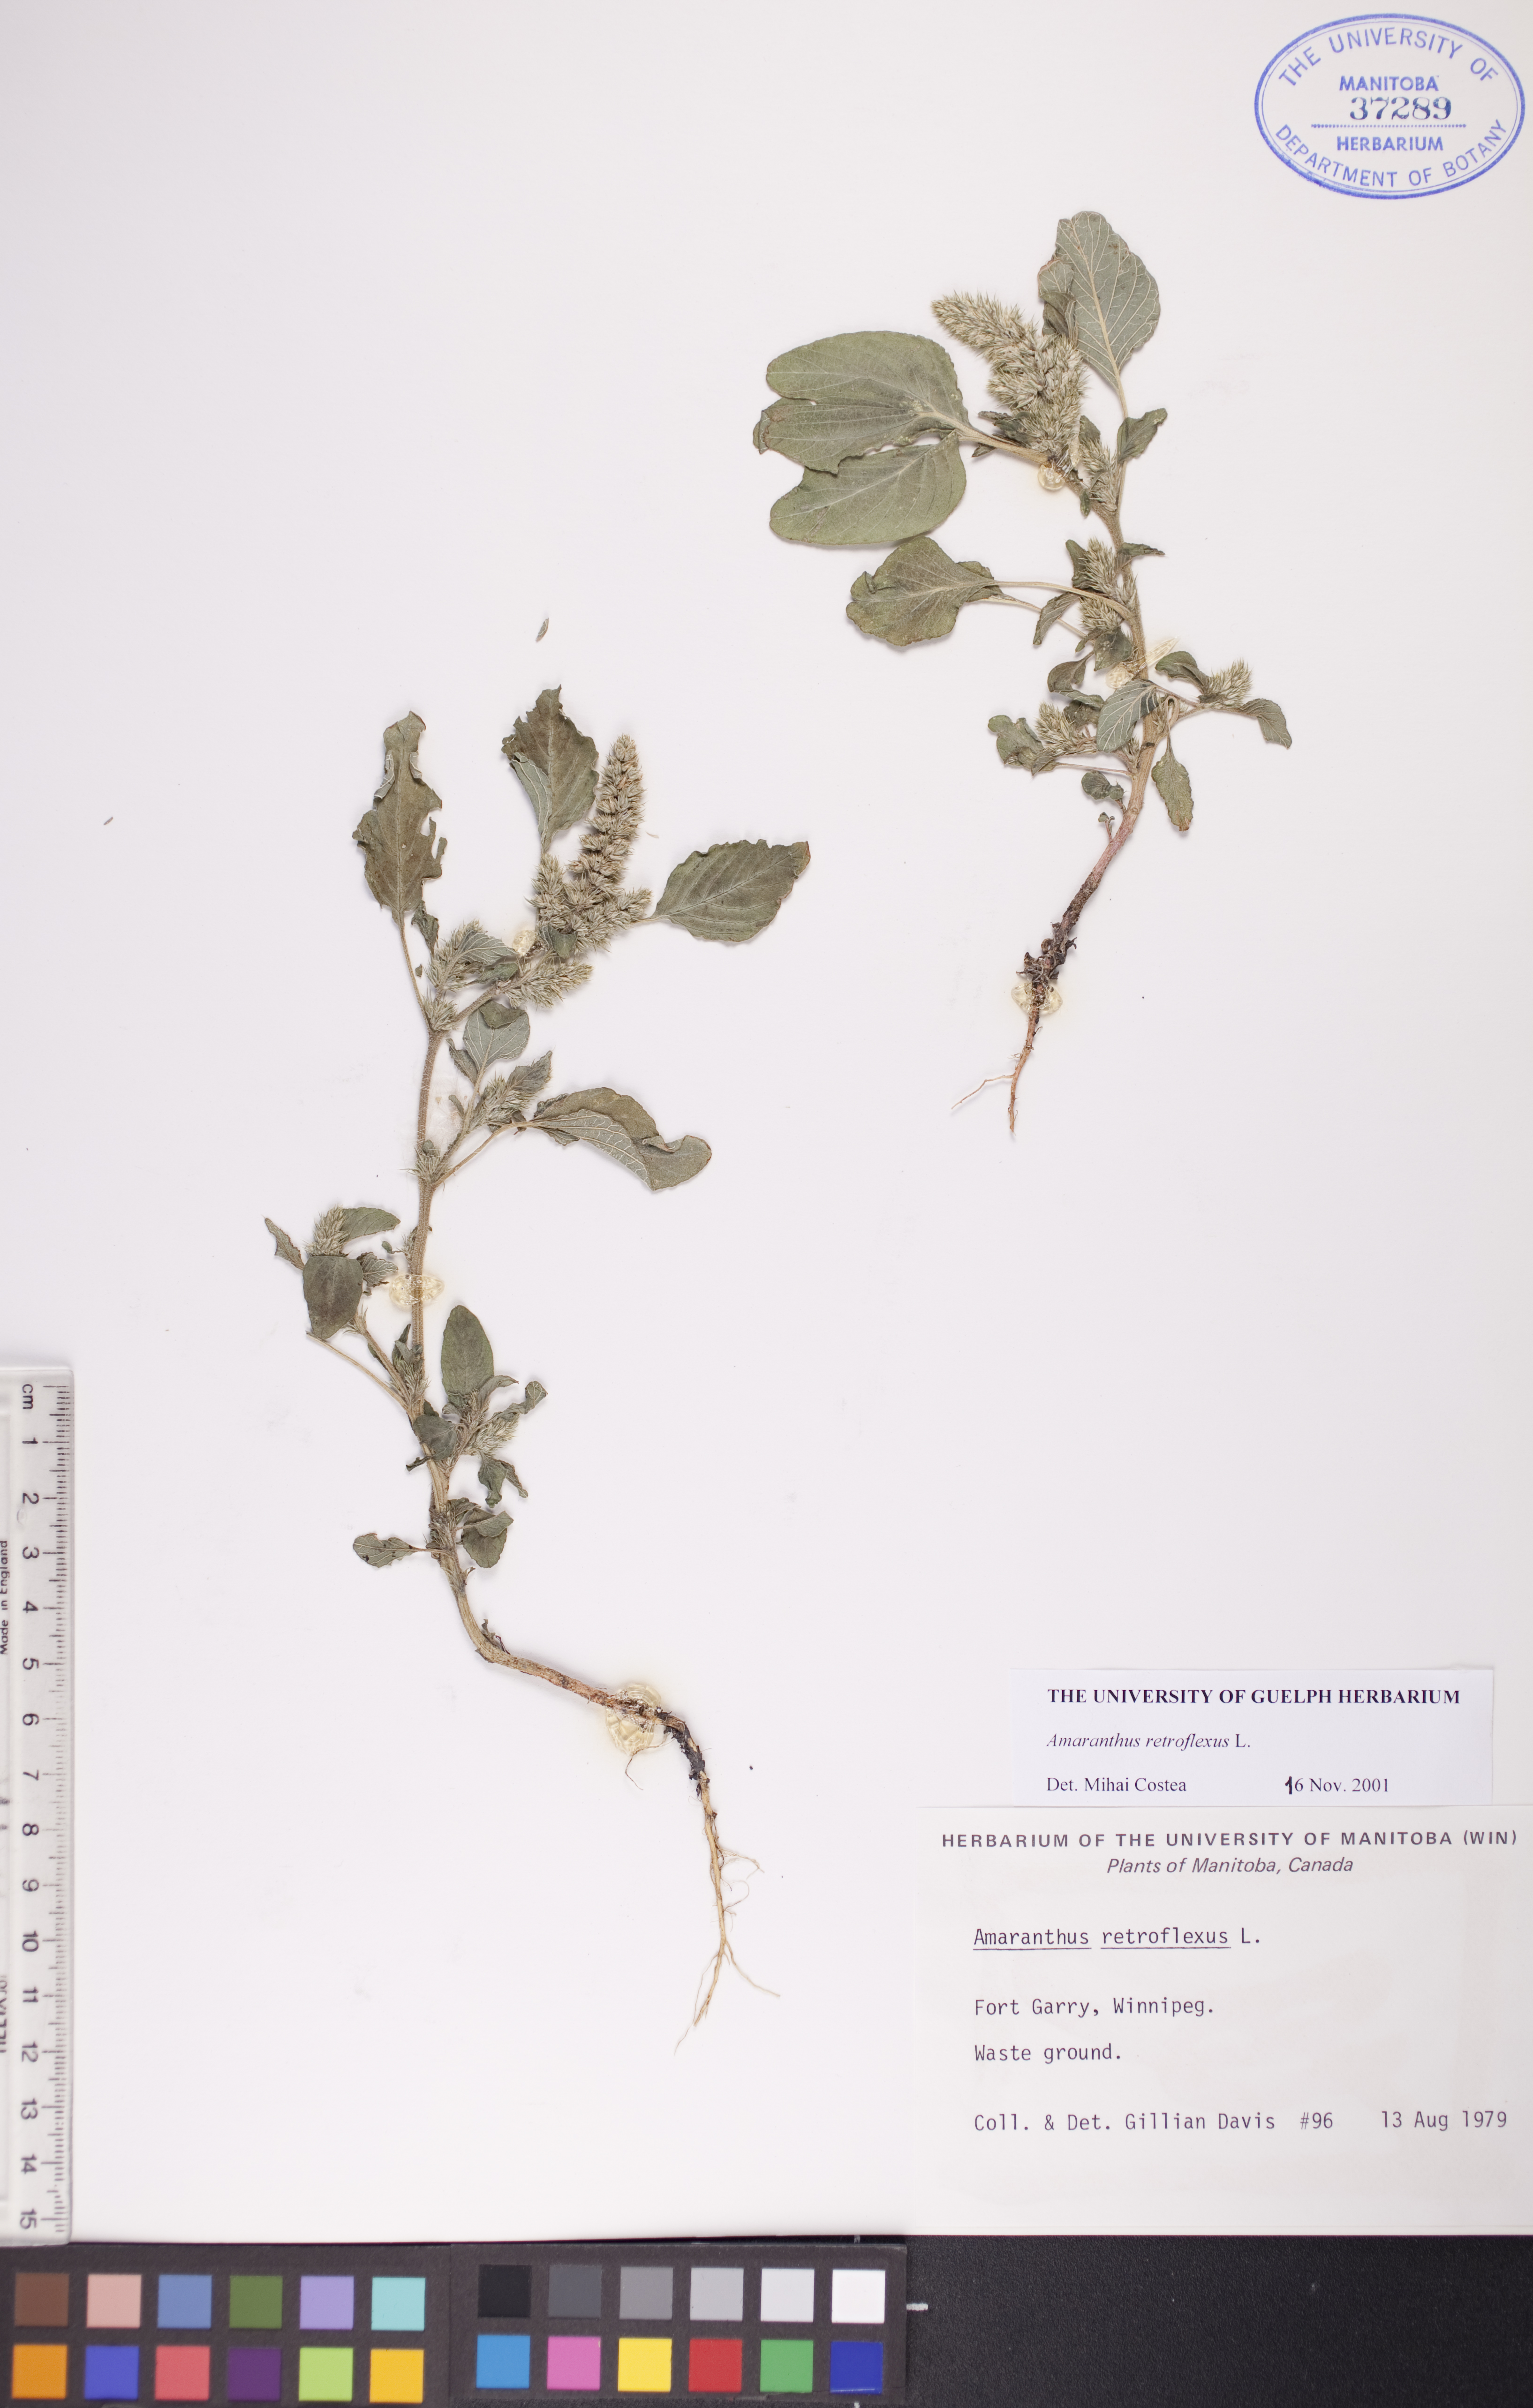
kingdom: Plantae
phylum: Tracheophyta
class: Magnoliopsida
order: Caryophyllales
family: Amaranthaceae
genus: Amaranthus
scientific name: Amaranthus retroflexus
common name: Redroot amaranth
